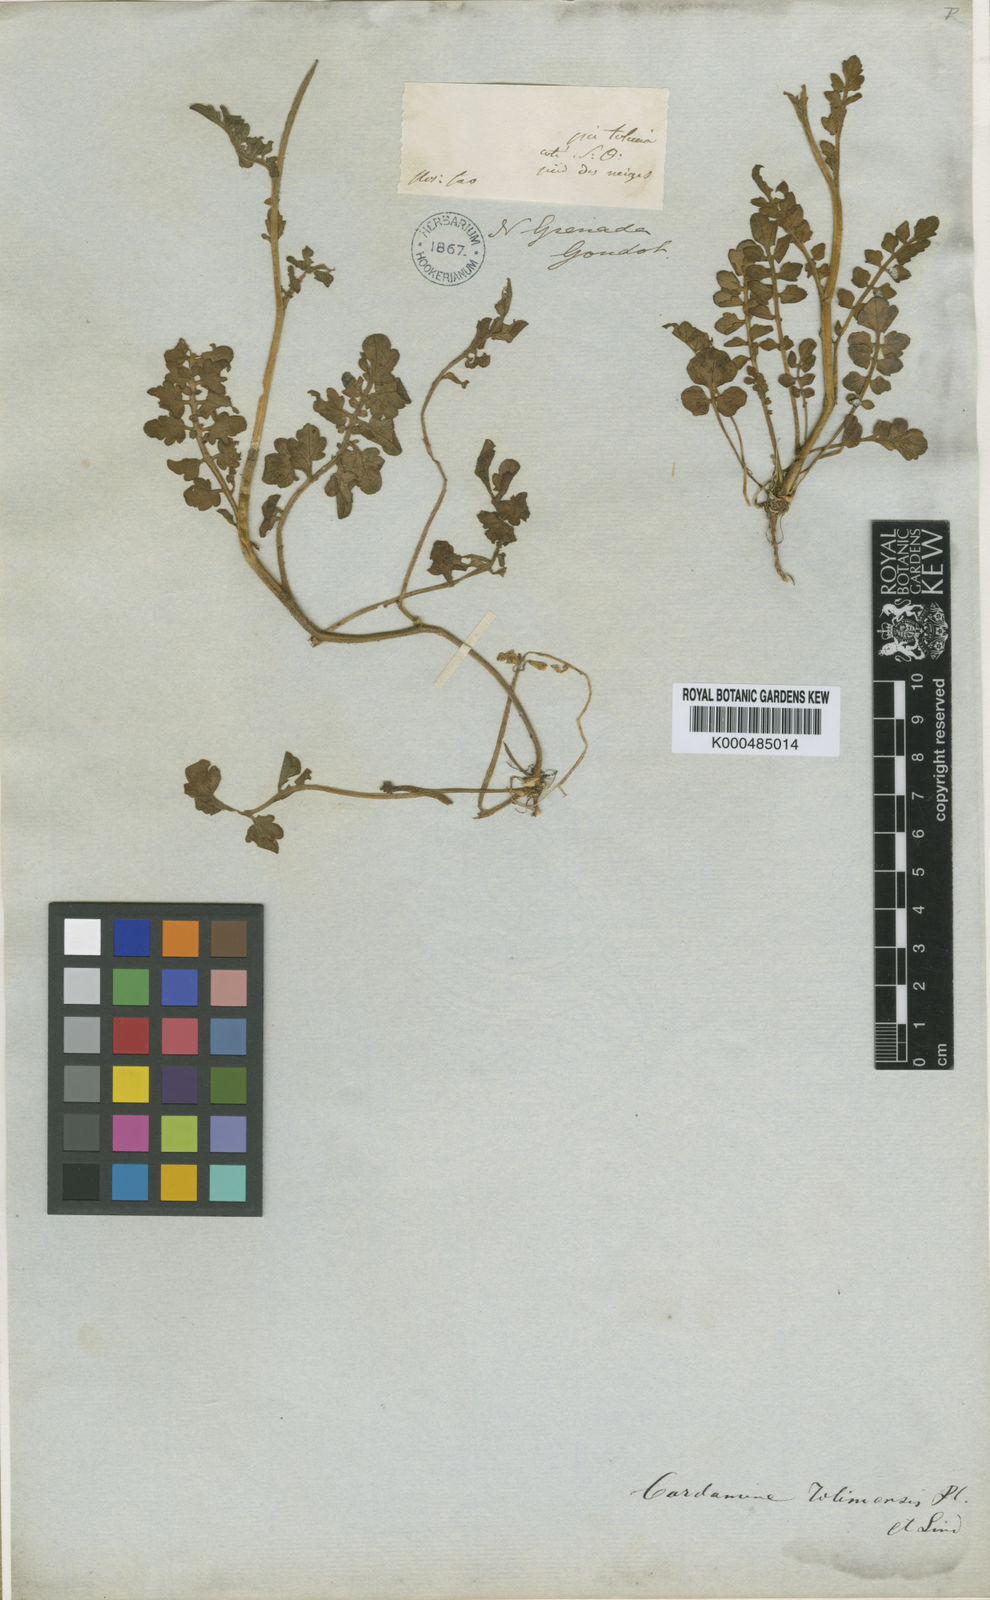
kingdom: Plantae
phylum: Tracheophyta
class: Magnoliopsida
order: Brassicales
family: Brassicaceae
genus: Cardamine
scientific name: Cardamine jamesonii
